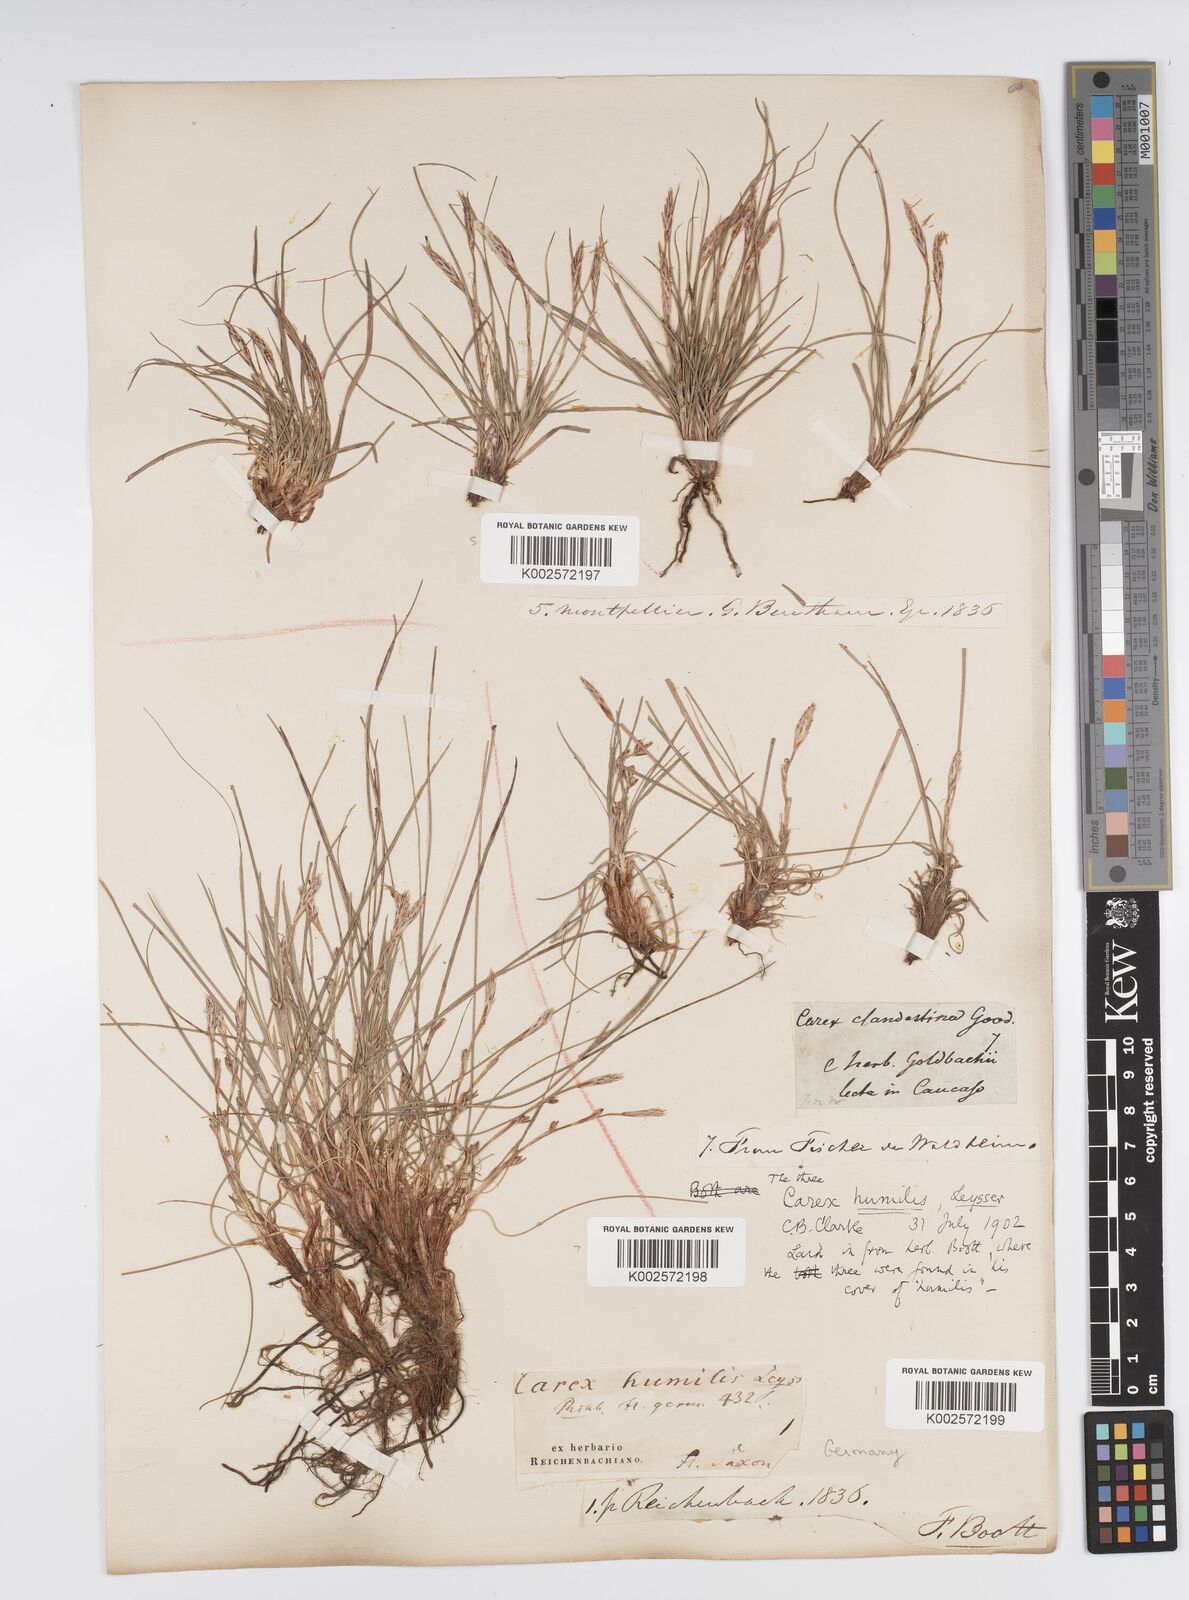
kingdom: Plantae
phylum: Tracheophyta
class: Liliopsida
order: Poales
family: Cyperaceae
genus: Carex
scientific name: Carex humilis
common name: Dwarf sedge
